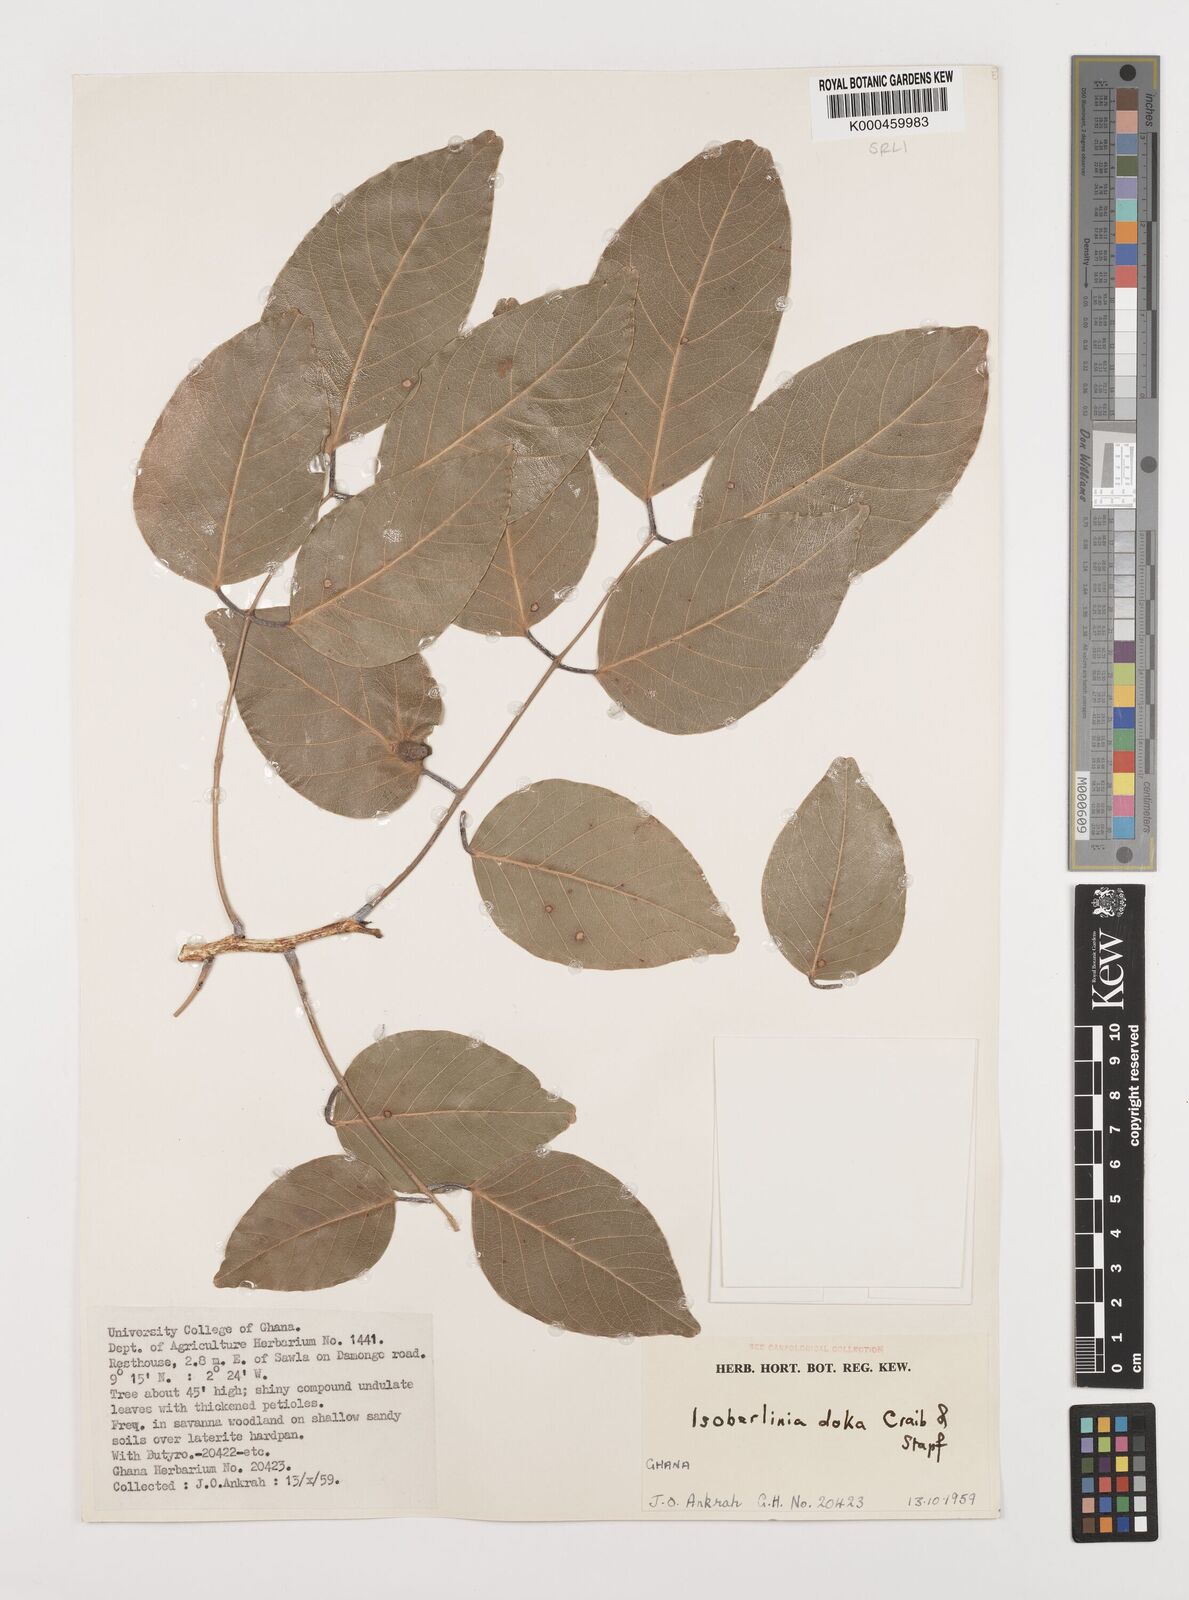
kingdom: Plantae
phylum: Tracheophyta
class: Magnoliopsida
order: Fabales
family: Fabaceae
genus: Isoberlinia
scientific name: Isoberlinia doka
